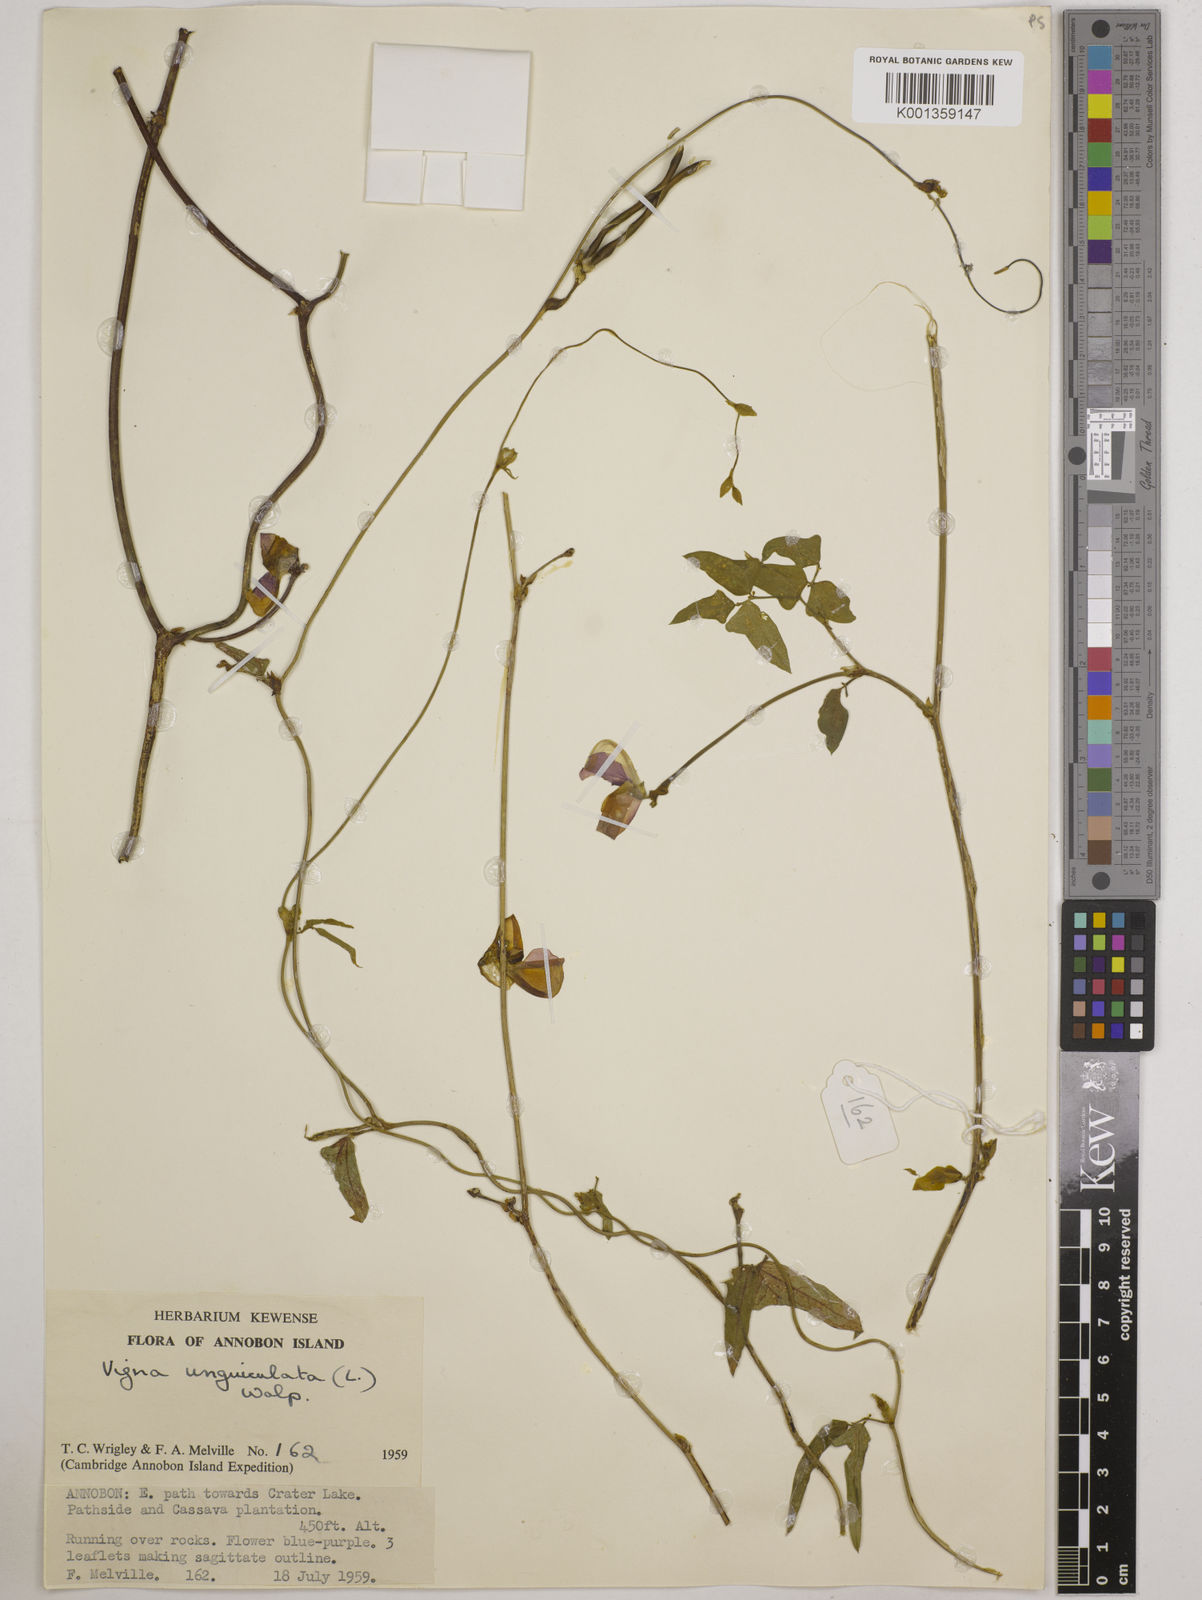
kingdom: Plantae
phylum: Tracheophyta
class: Magnoliopsida
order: Fabales
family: Fabaceae
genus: Vigna
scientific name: Vigna
